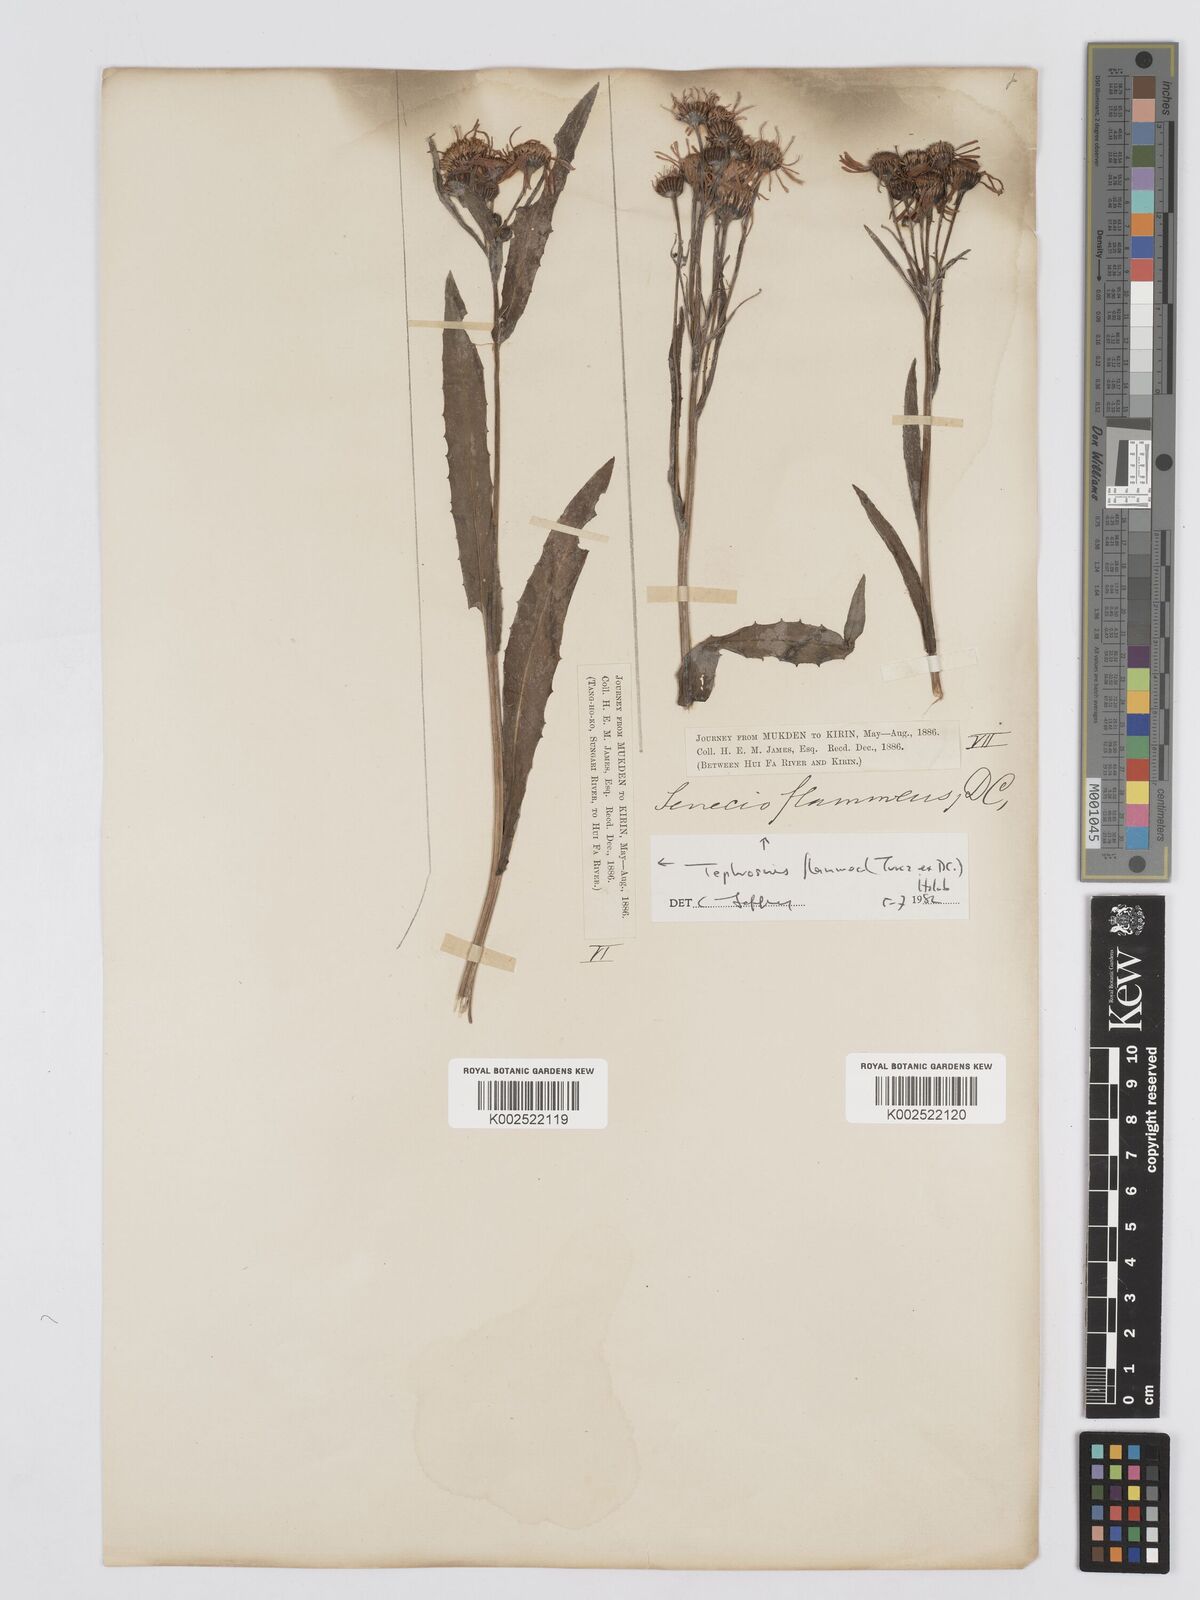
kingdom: Plantae
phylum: Tracheophyta
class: Magnoliopsida
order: Asterales
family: Asteraceae
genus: Tephroseris
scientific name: Tephroseris flammea
